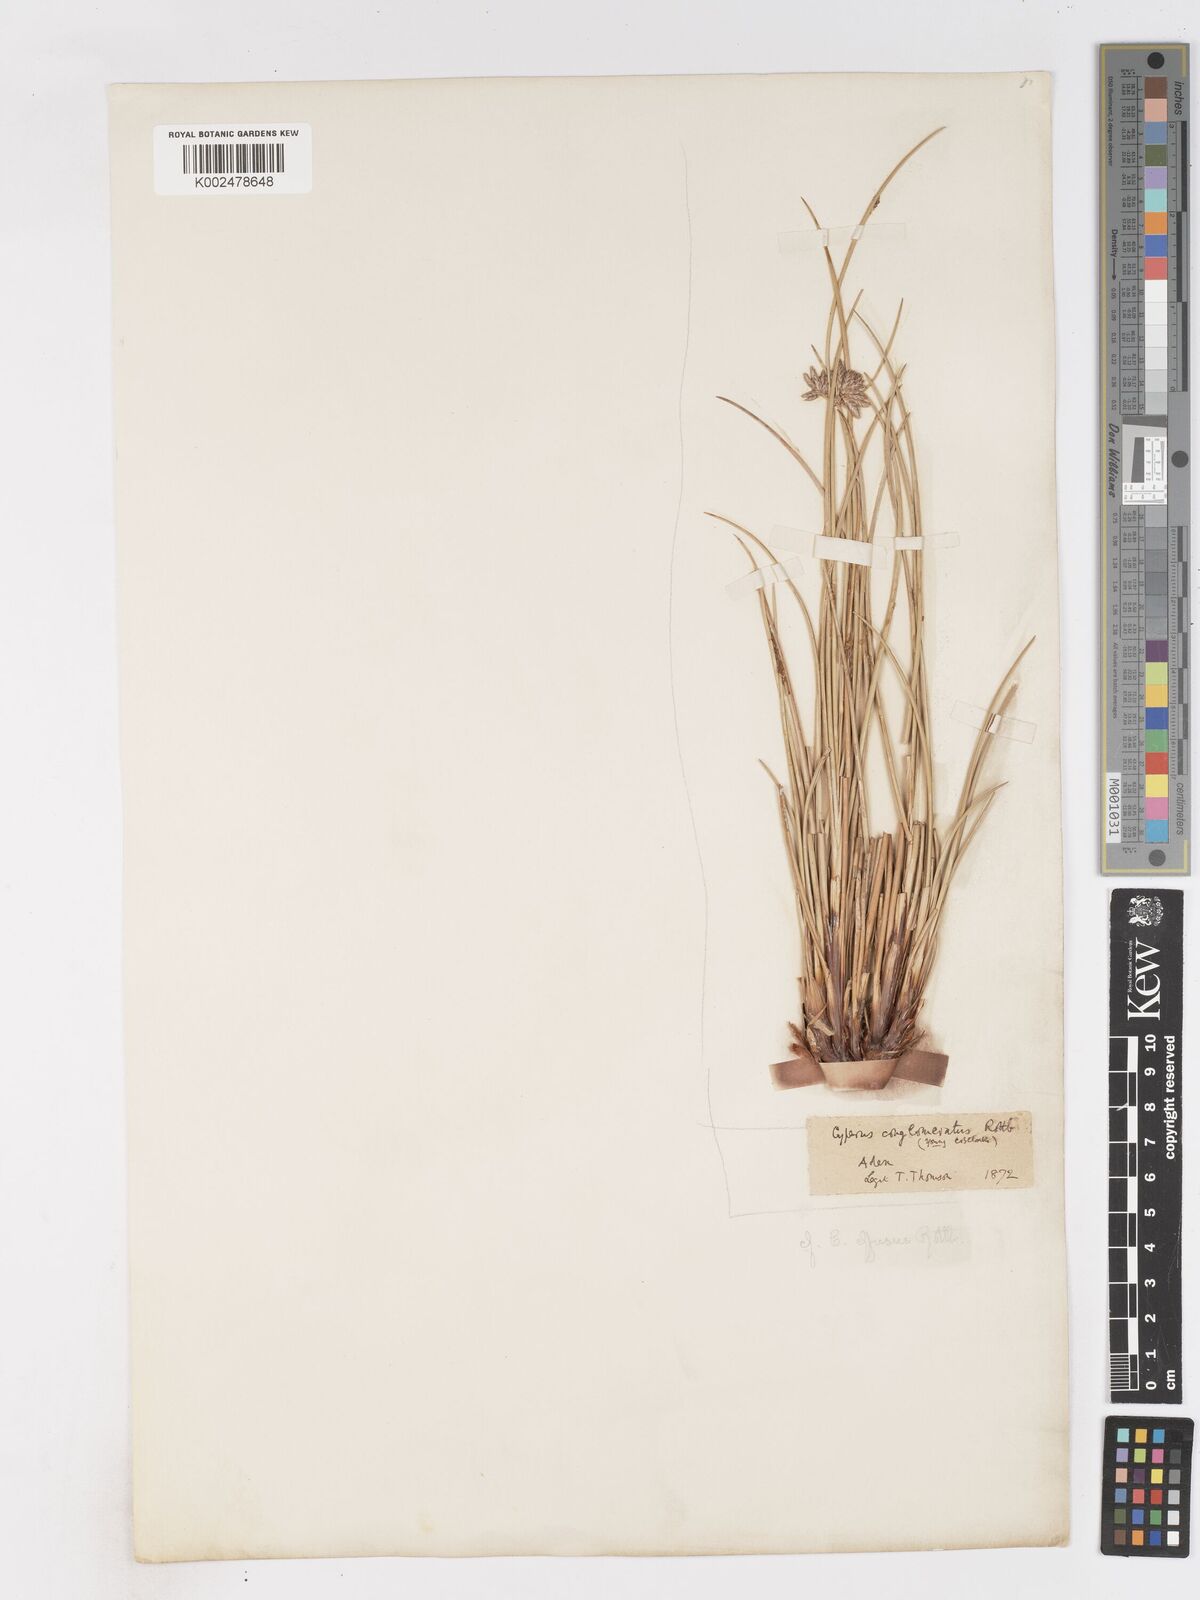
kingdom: Plantae
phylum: Tracheophyta
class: Liliopsida
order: Poales
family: Cyperaceae
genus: Cyperus
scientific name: Cyperus conglomeratus
